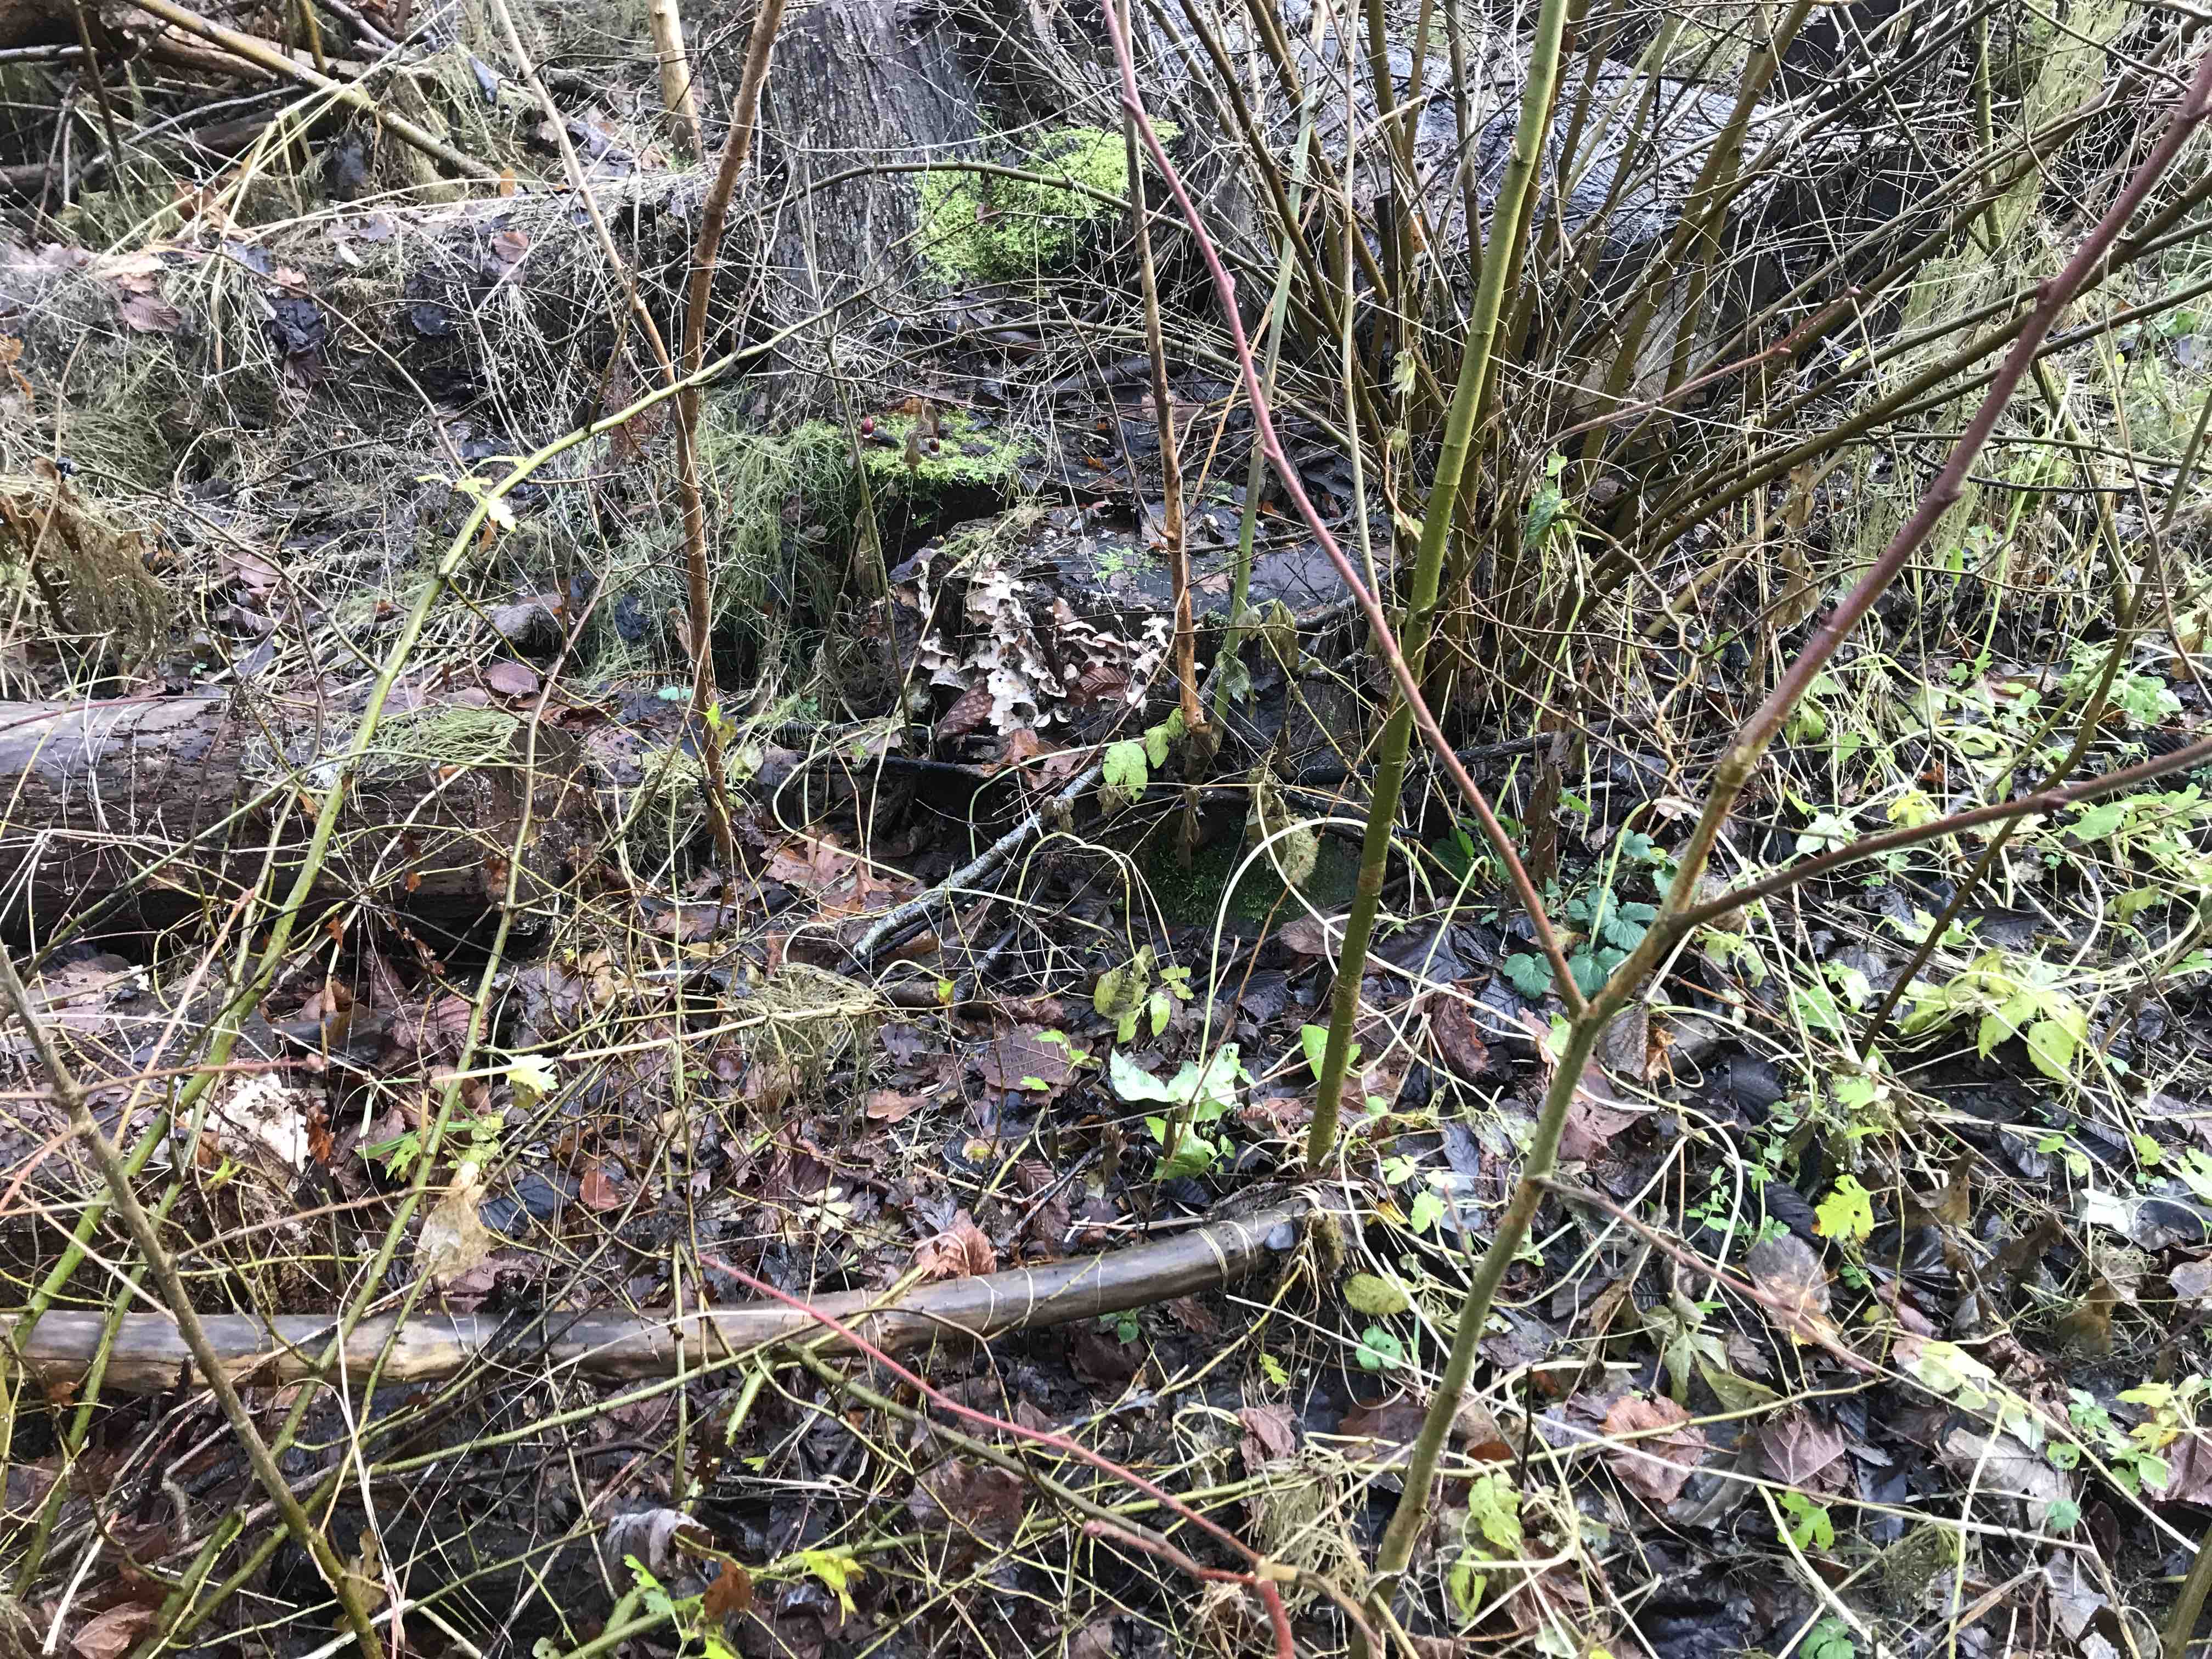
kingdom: Fungi
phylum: Basidiomycota
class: Agaricomycetes
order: Polyporales
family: Meruliaceae
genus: Phlebia
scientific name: Phlebia tremellosa
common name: bævrende åresvamp
